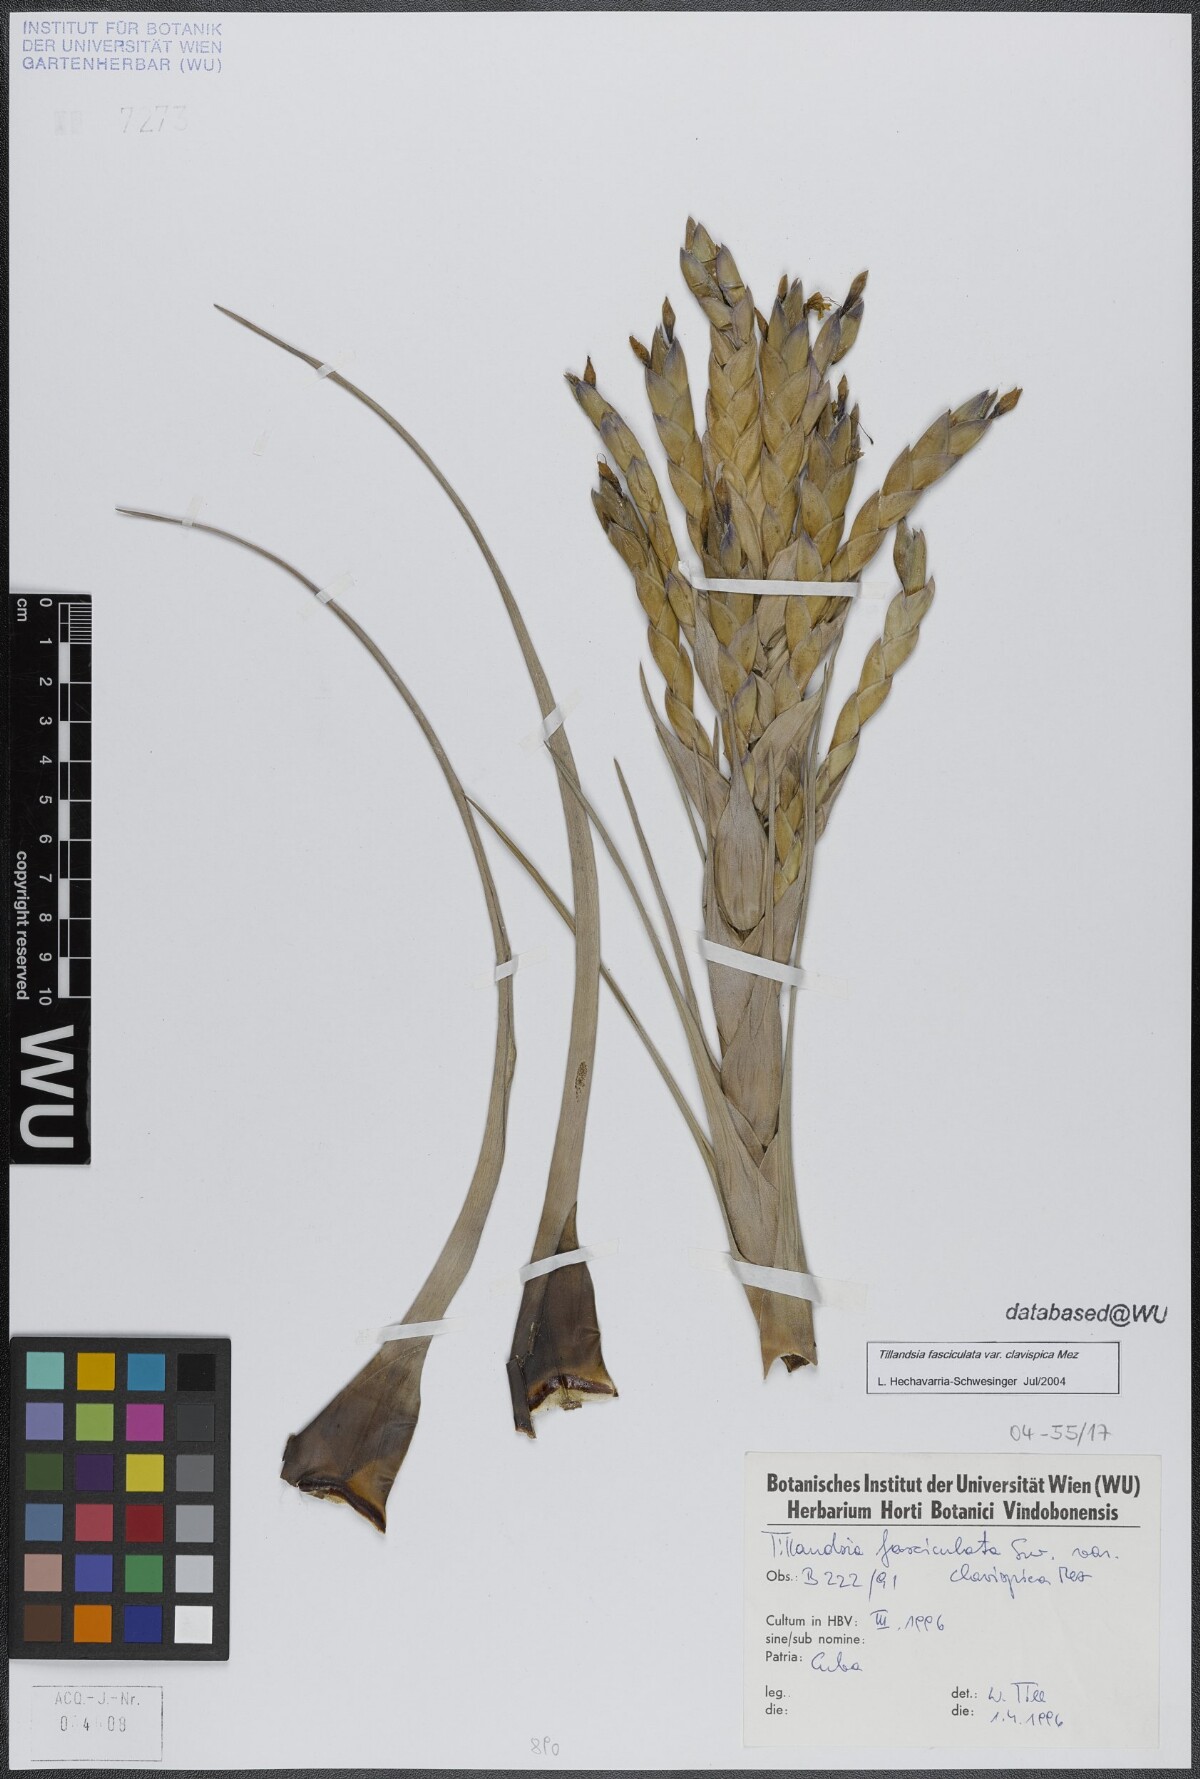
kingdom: Plantae
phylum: Tracheophyta
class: Liliopsida
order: Poales
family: Bromeliaceae
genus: Tillandsia
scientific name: Tillandsia fasciculata
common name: Giant airplant
